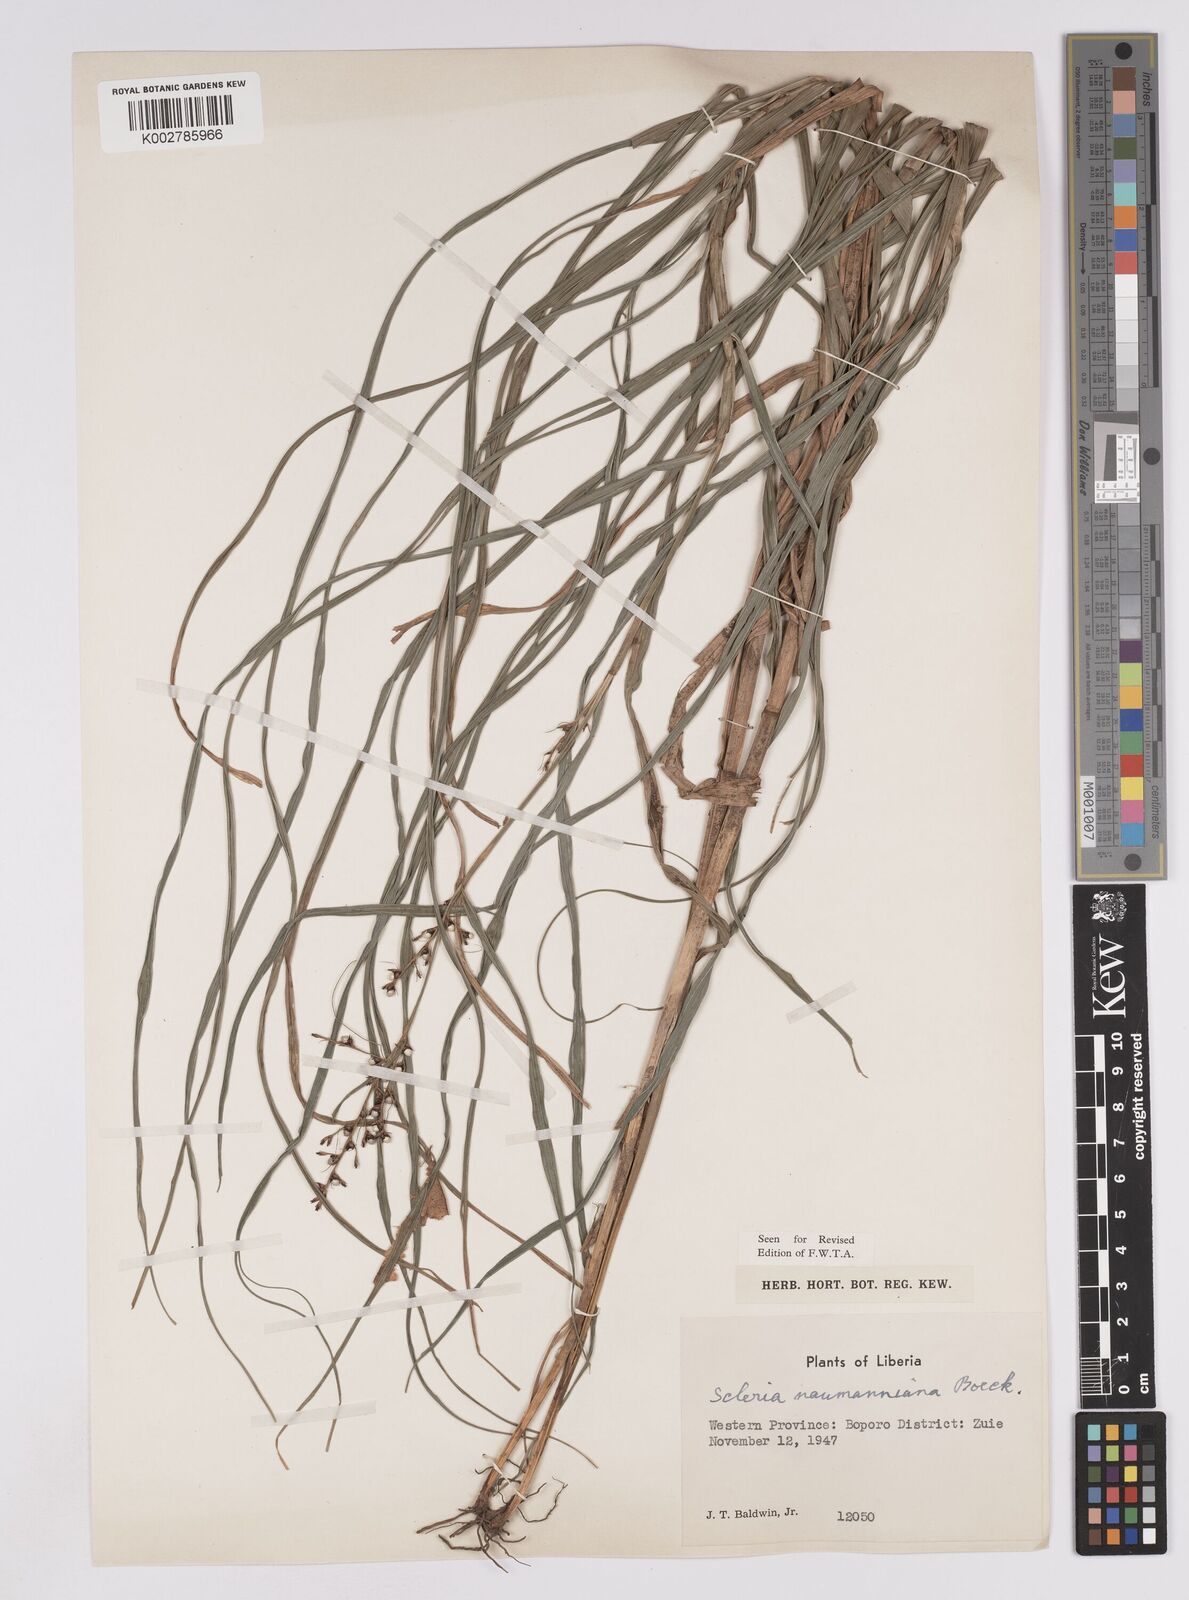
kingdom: Plantae
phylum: Tracheophyta
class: Liliopsida
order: Poales
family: Cyperaceae
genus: Scleria
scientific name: Scleria naumanniana
